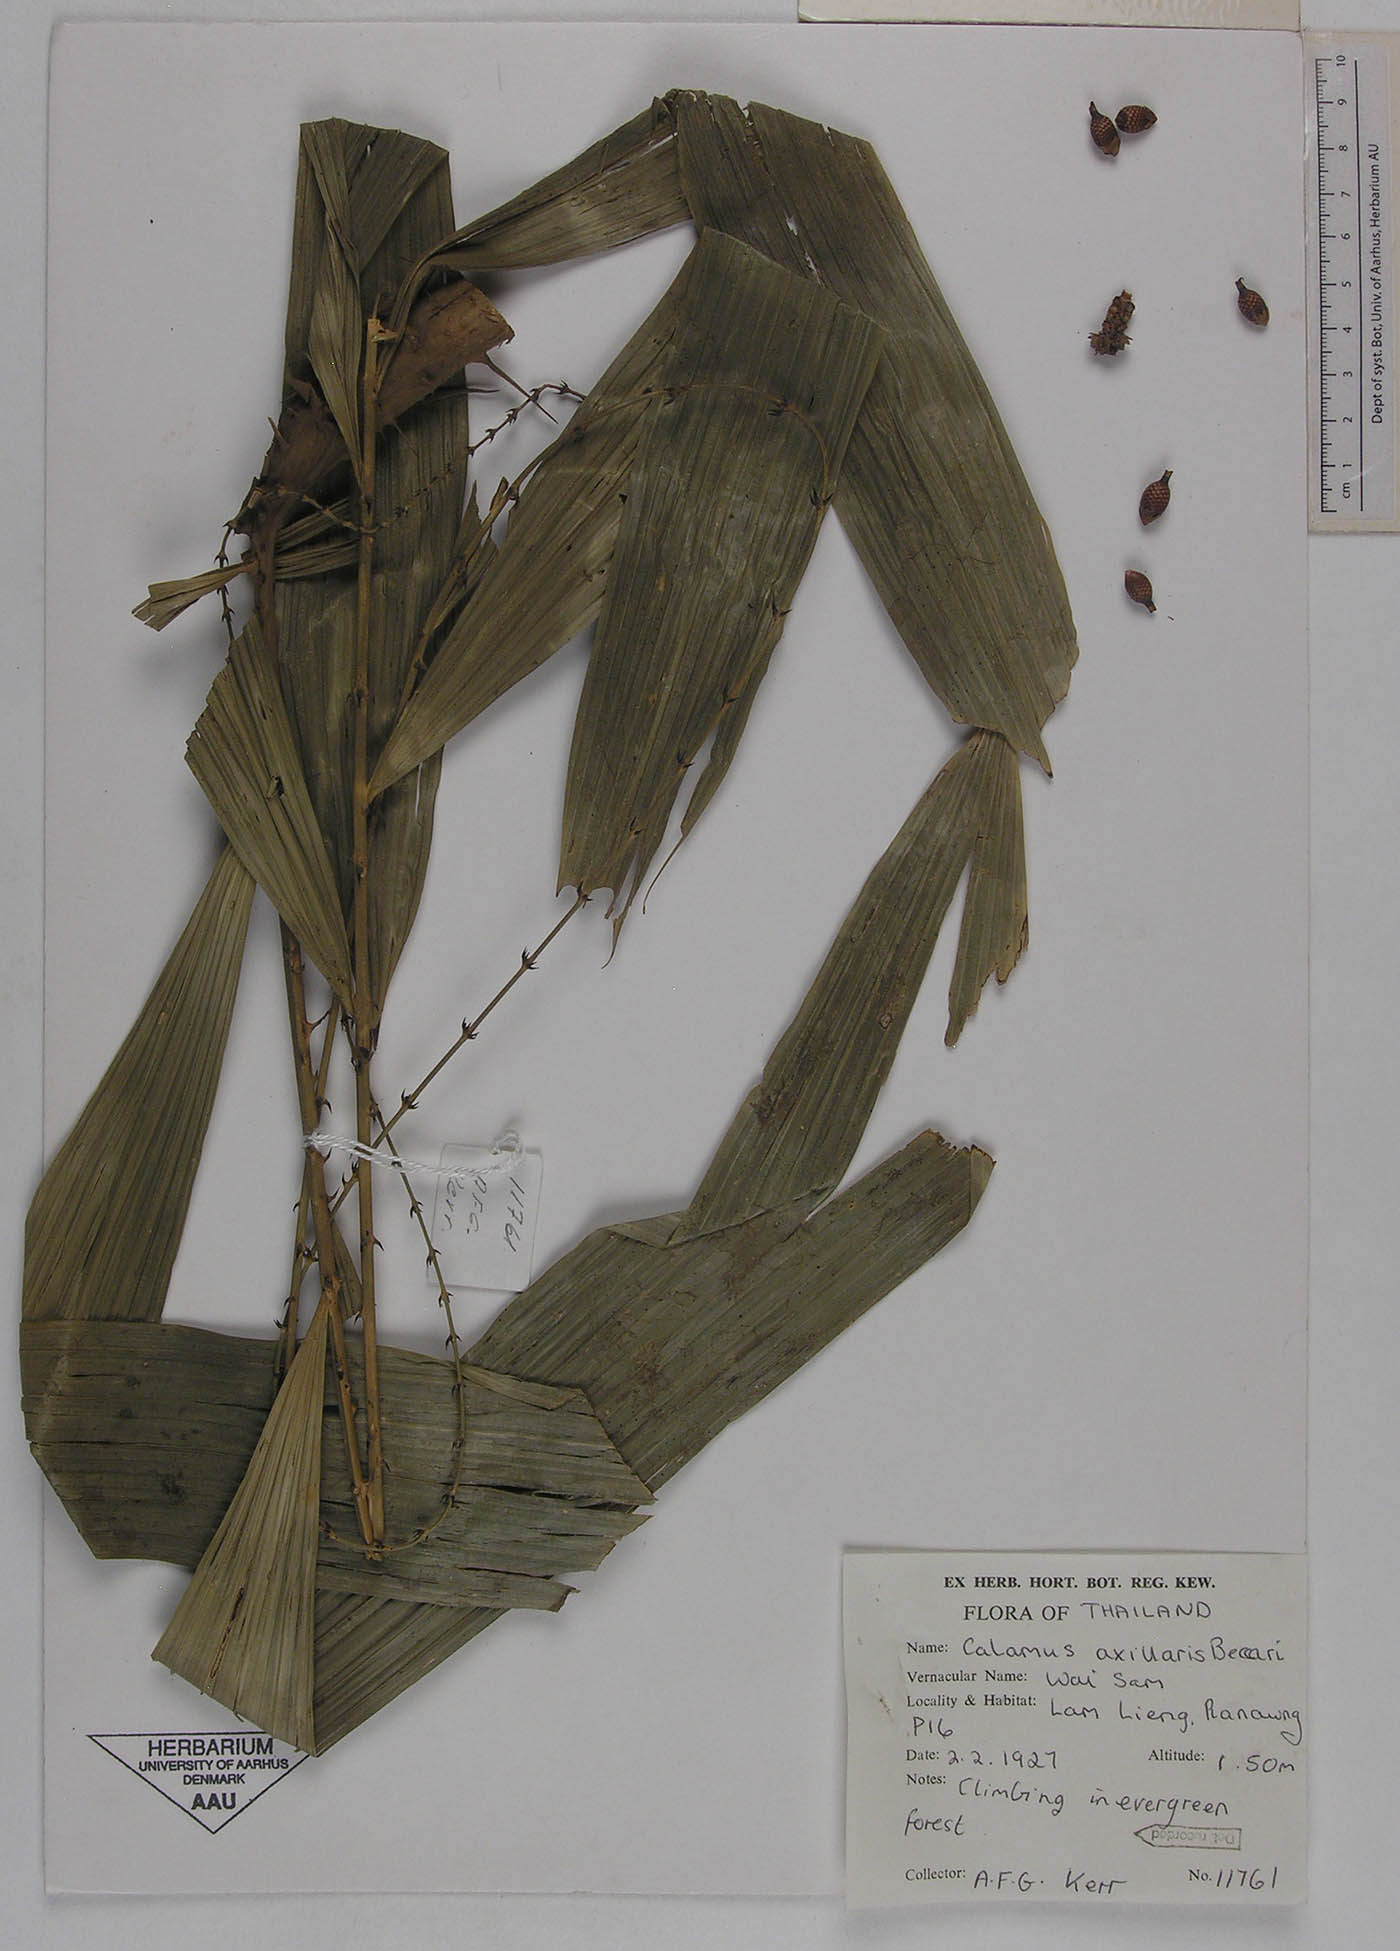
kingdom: Plantae
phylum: Tracheophyta
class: Liliopsida
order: Arecales
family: Arecaceae
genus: Calamus
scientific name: Calamus axillaris
